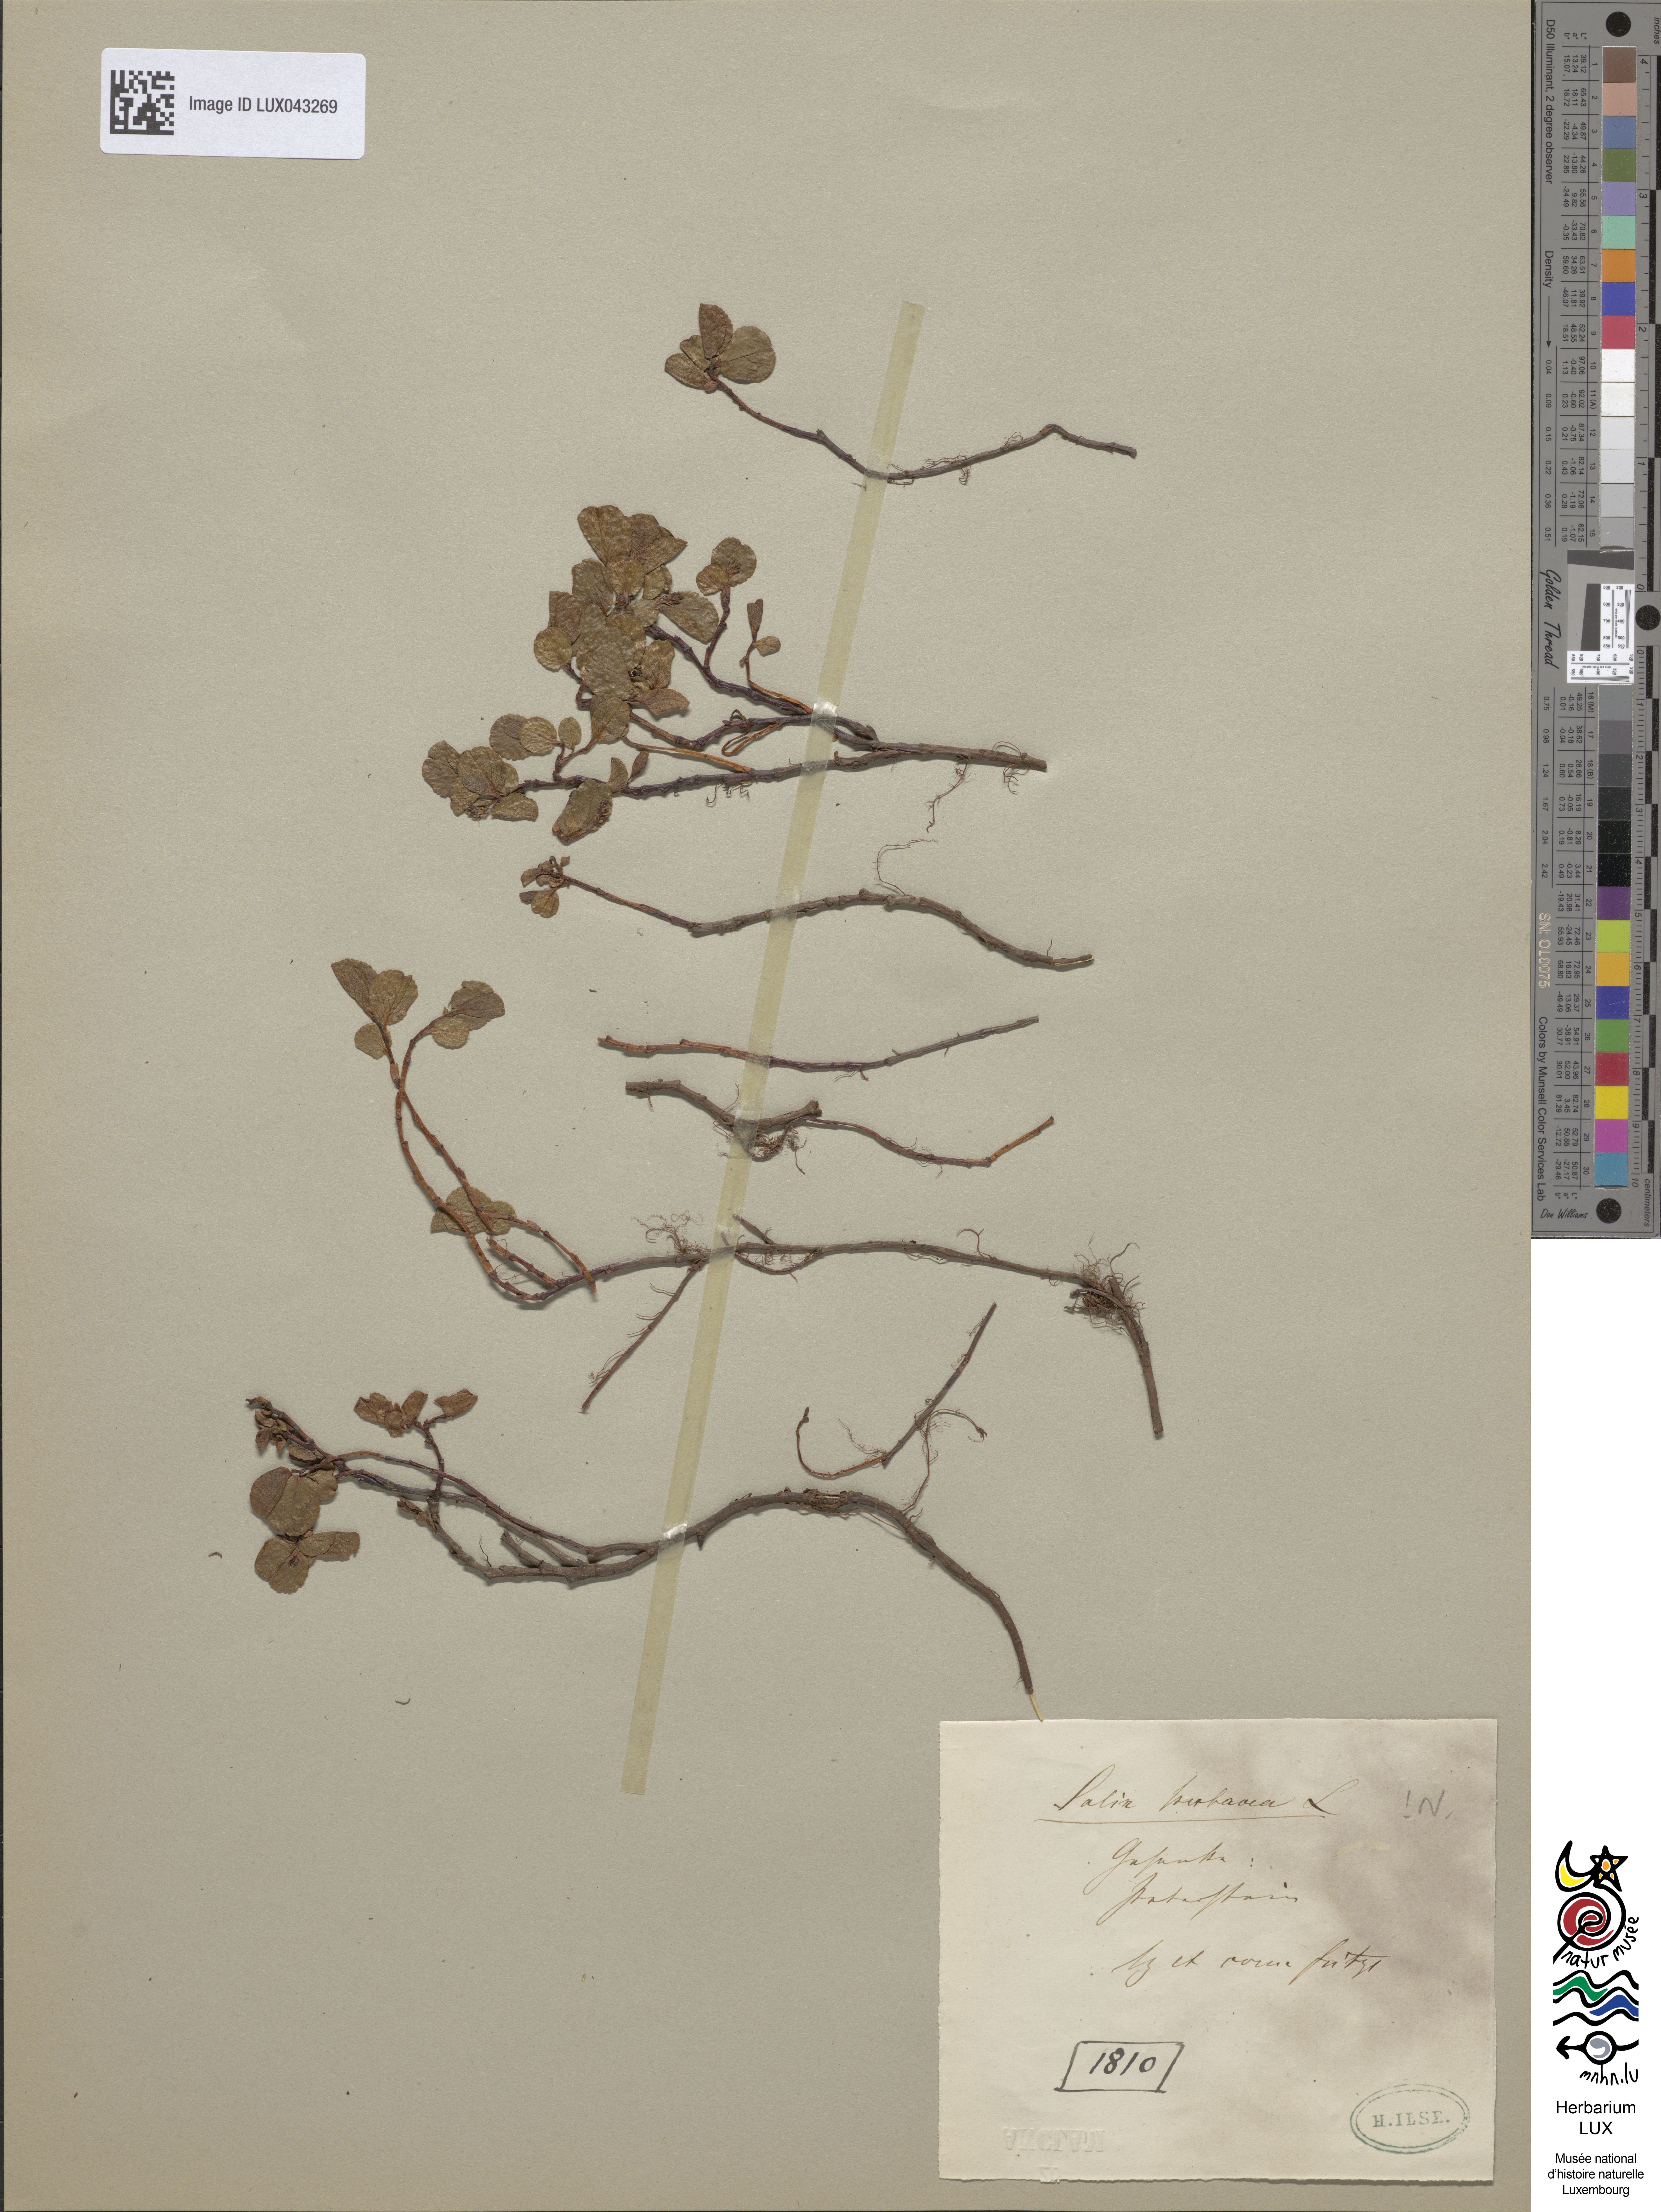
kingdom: Plantae
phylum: Tracheophyta
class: Magnoliopsida
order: Malpighiales
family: Salicaceae
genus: Salix
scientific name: Salix herbacea
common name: Dwarf willow
